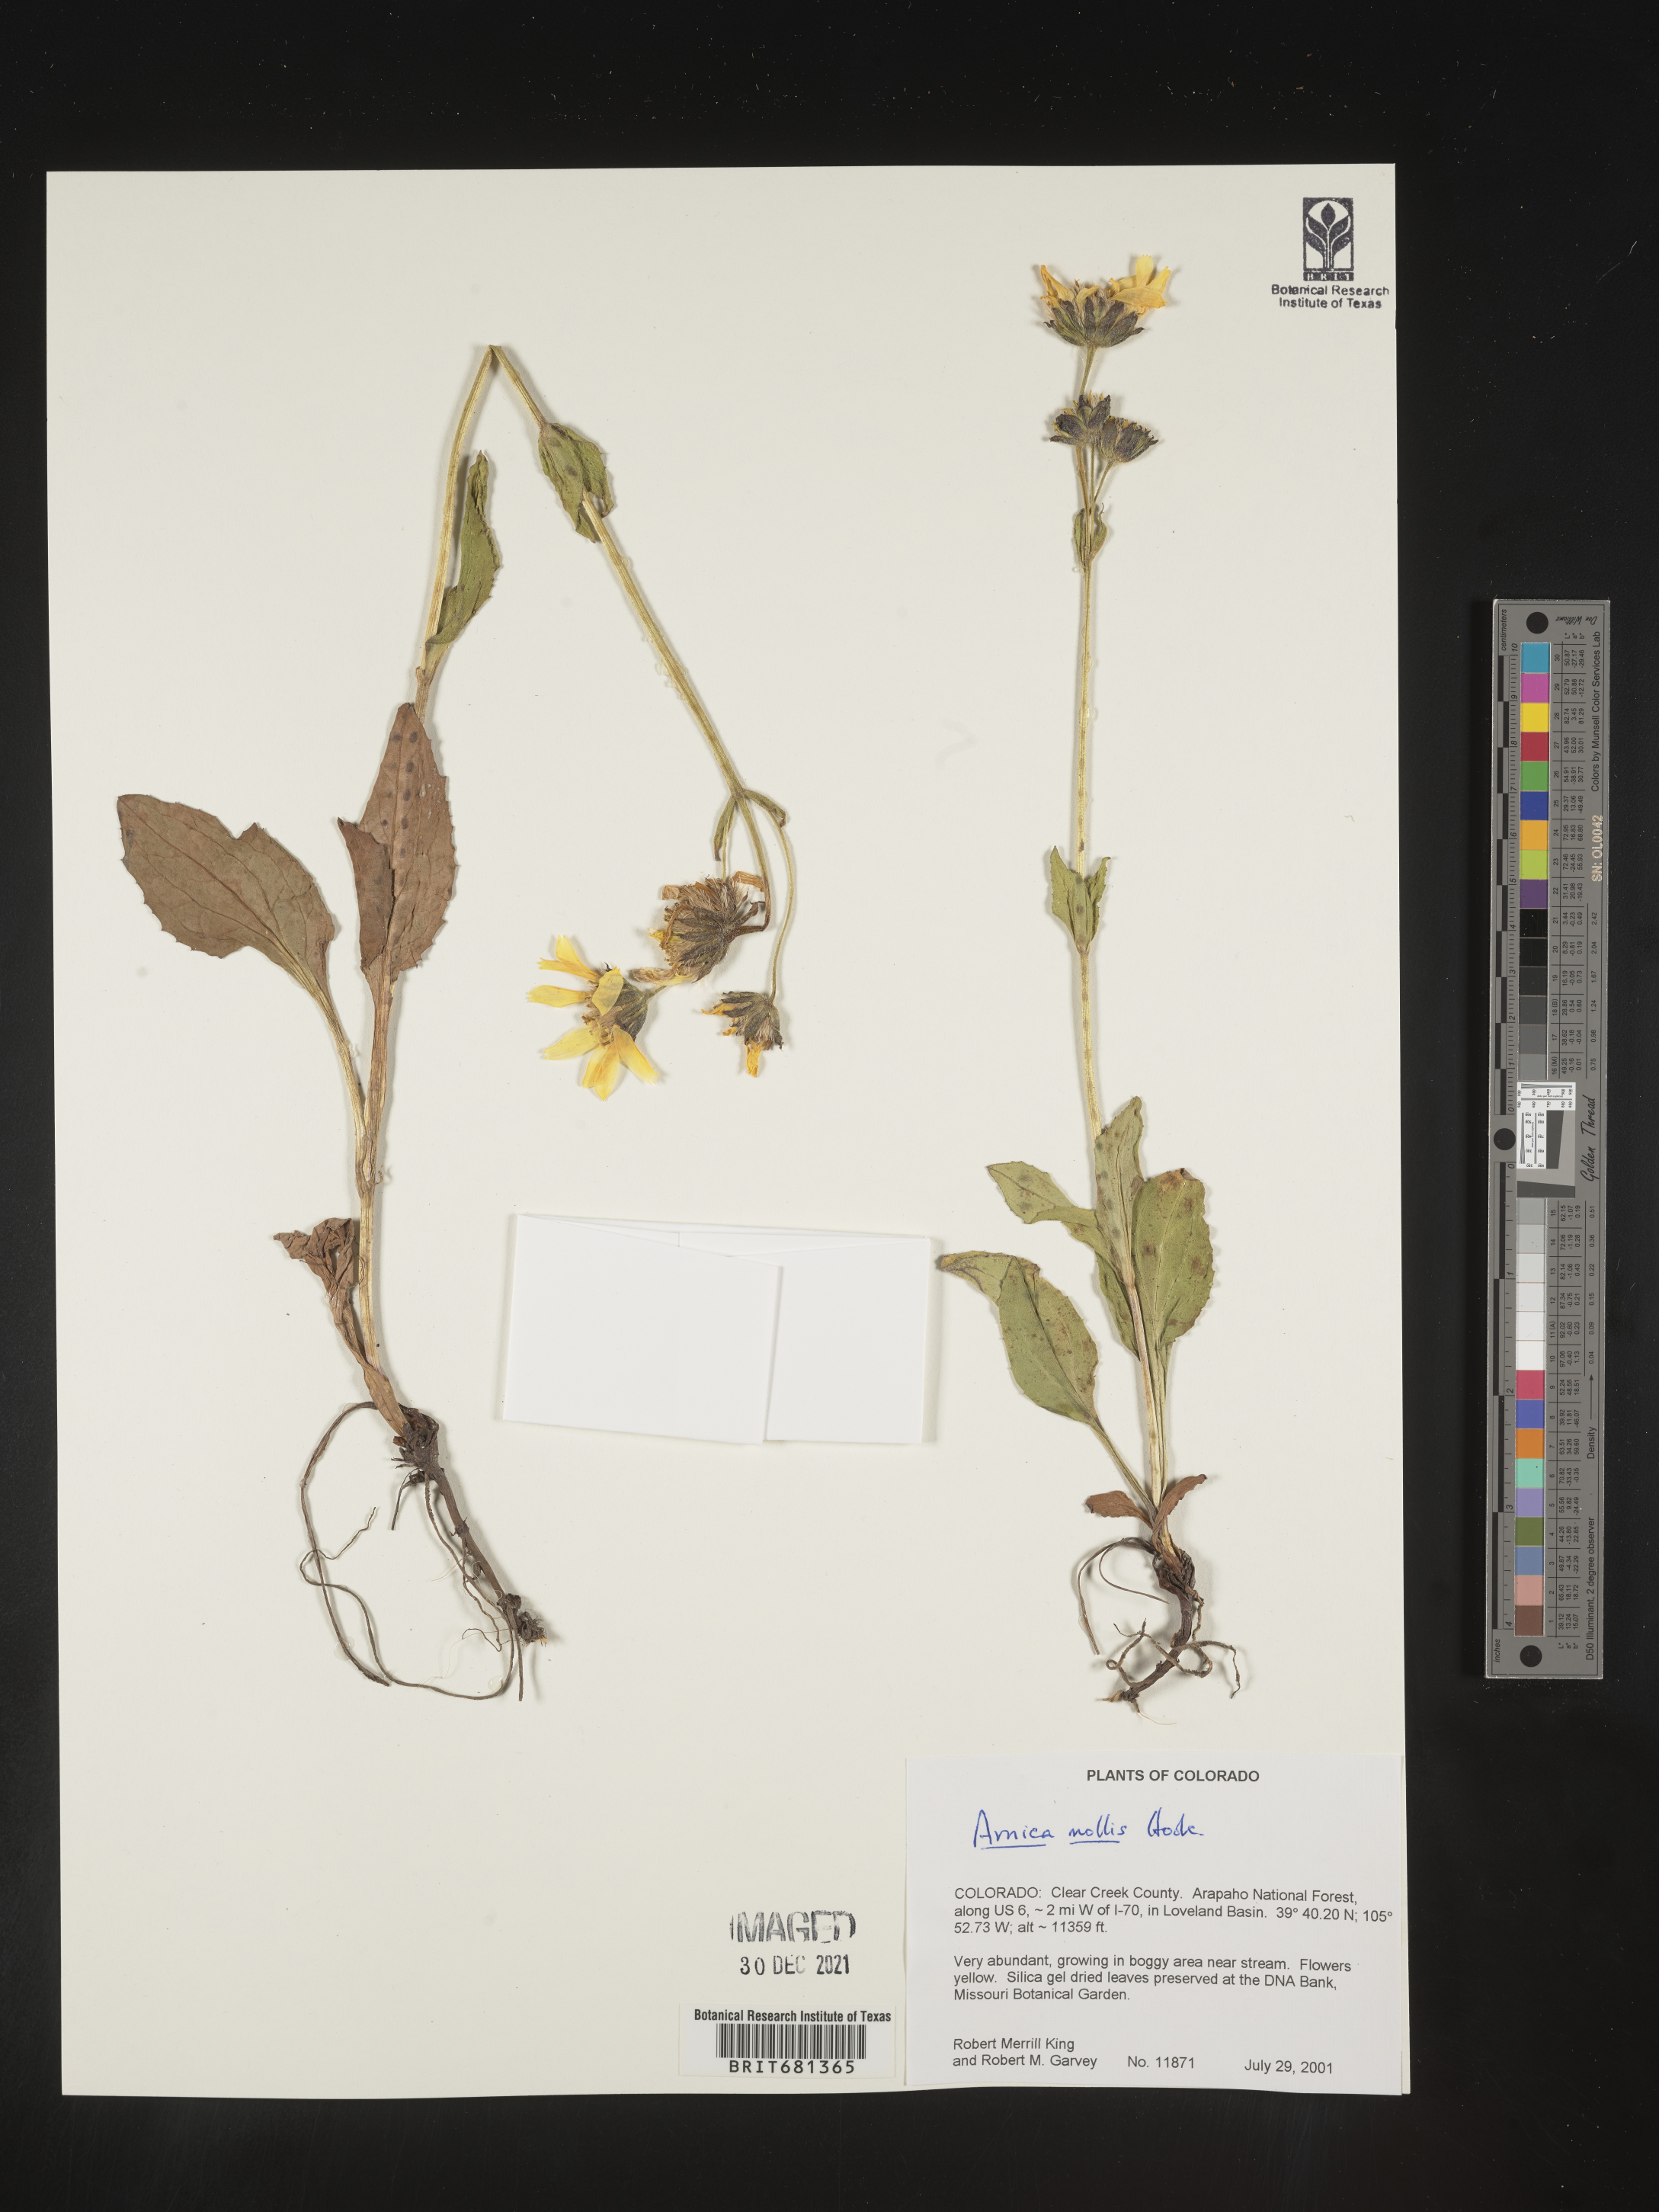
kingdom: Plantae
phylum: Tracheophyta
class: Magnoliopsida
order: Asterales
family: Asteraceae
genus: Arnica
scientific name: Arnica mollis
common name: Hairy arnica
